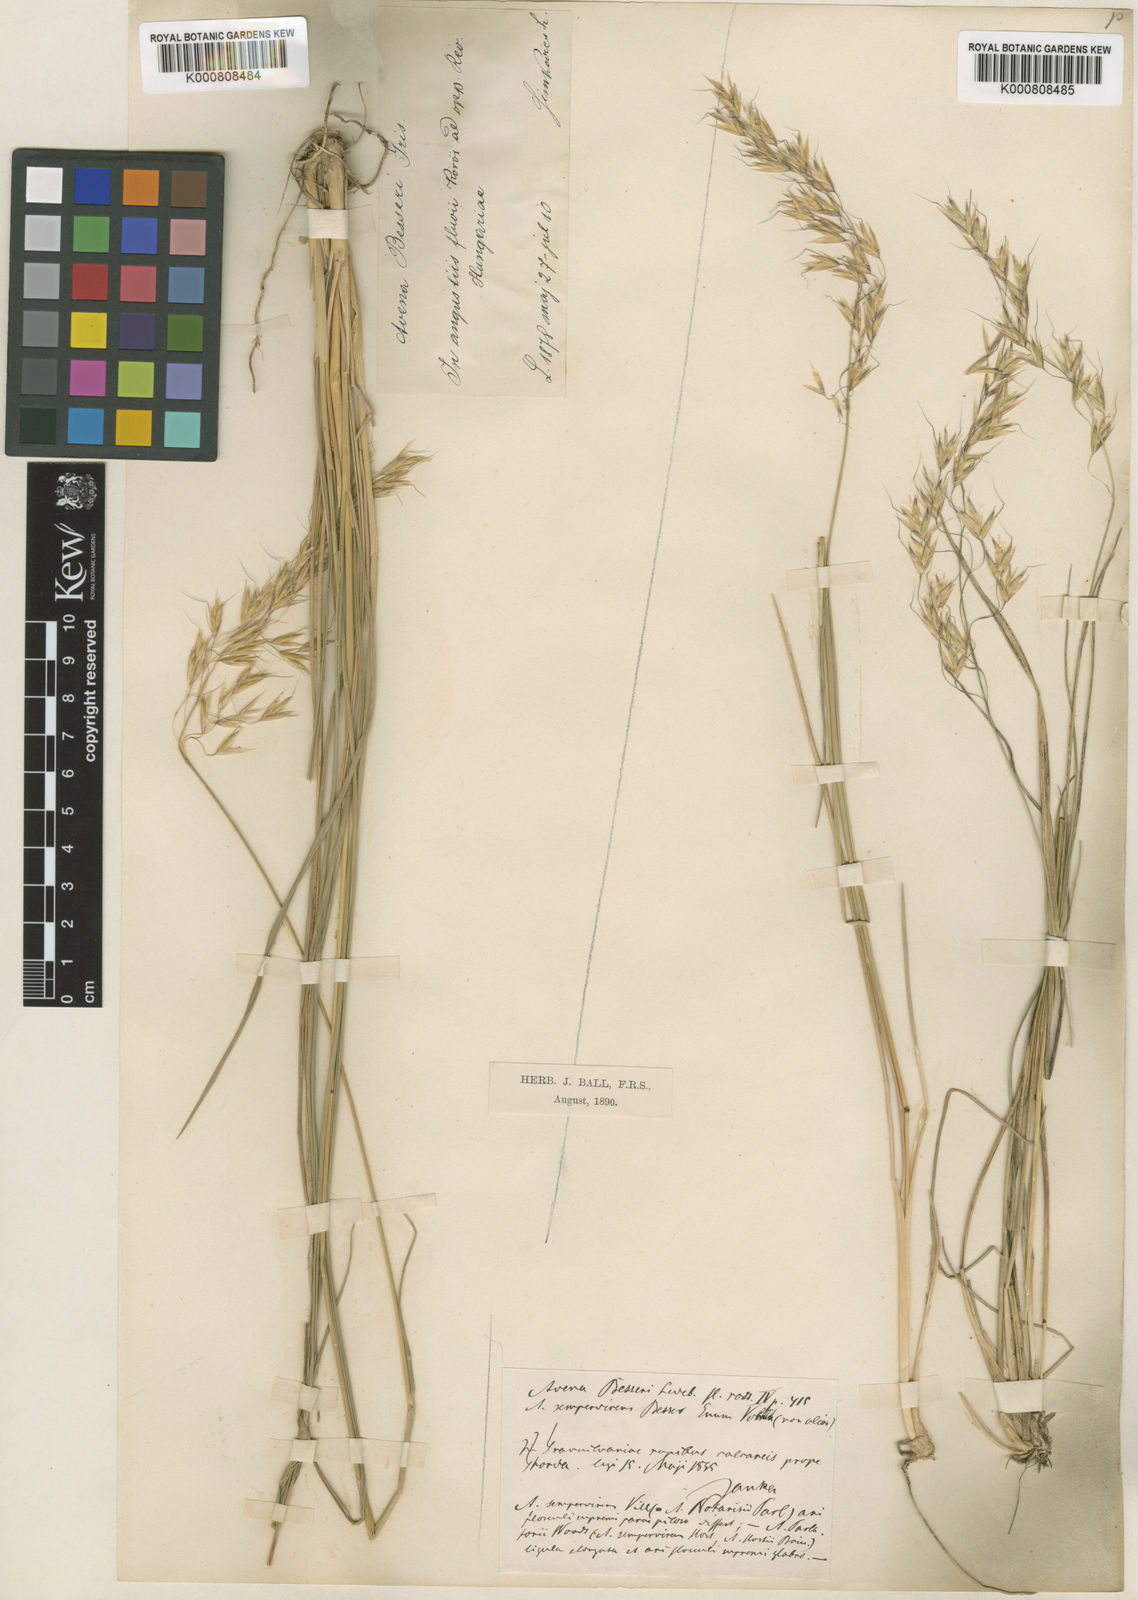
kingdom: Plantae
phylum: Tracheophyta
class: Liliopsida
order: Poales
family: Poaceae
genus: Helictotrichon
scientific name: Helictotrichon decorum
